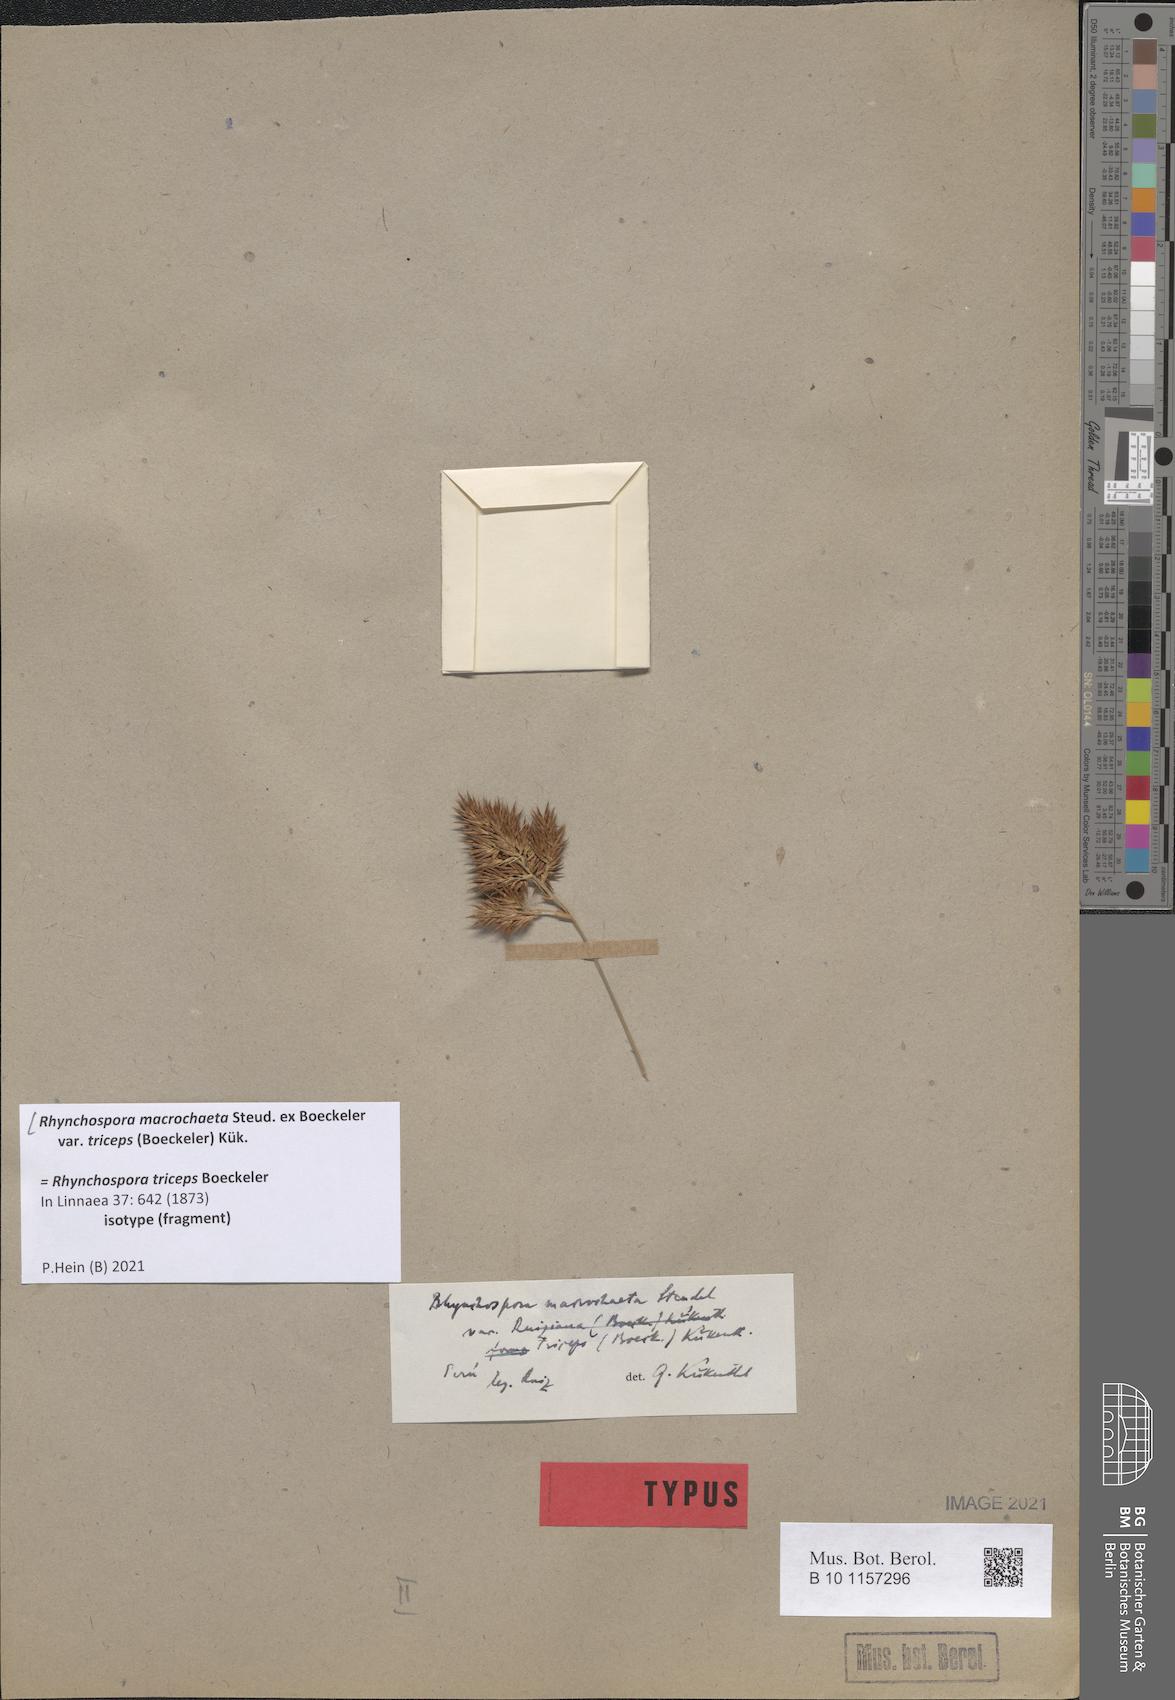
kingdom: Plantae
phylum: Tracheophyta
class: Liliopsida
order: Poales
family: Cyperaceae
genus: Rhynchospora
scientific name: Rhynchospora macrochaeta
